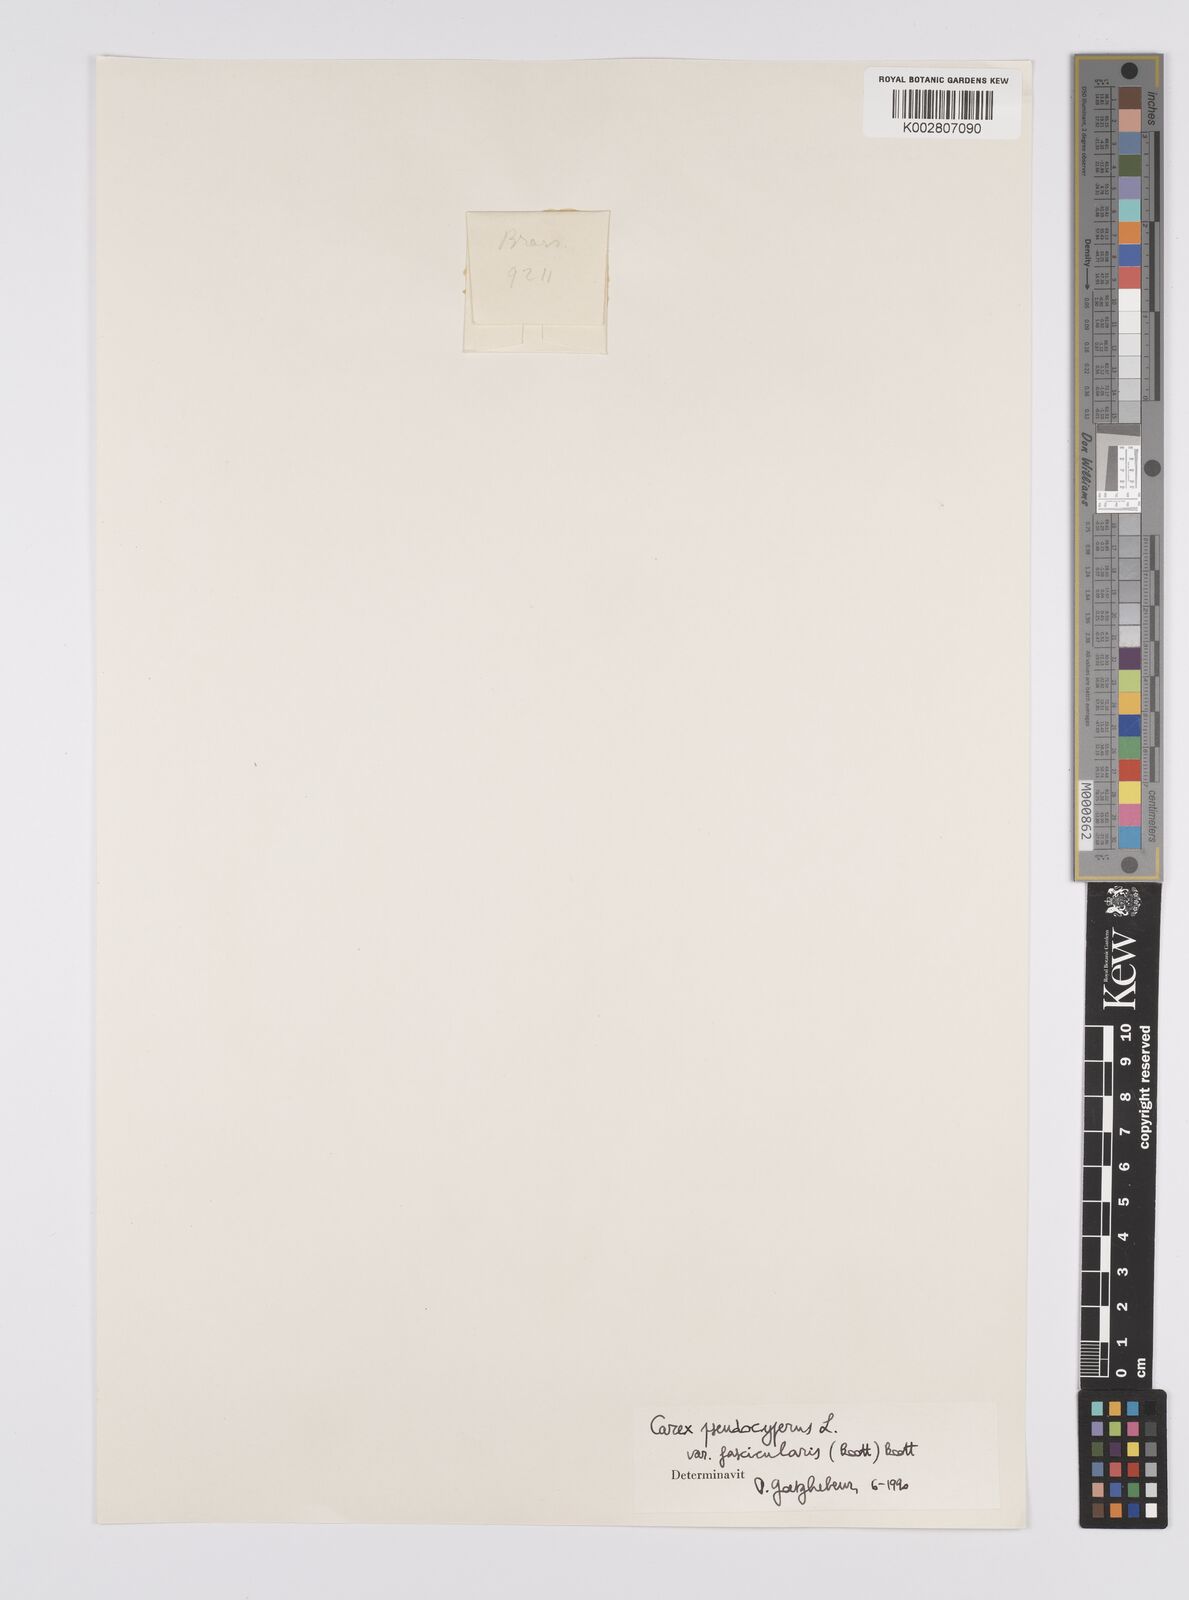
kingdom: Plantae
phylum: Tracheophyta
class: Liliopsida
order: Poales
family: Cyperaceae
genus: Carex
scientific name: Carex fascicularis
